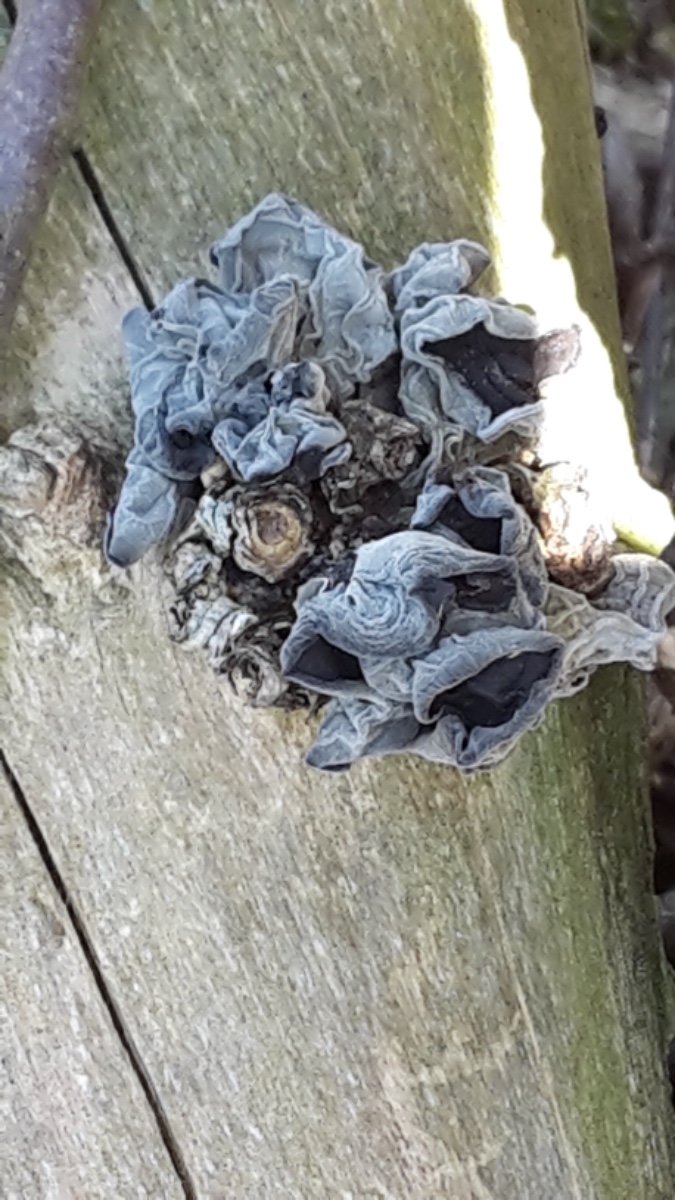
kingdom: Fungi
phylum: Basidiomycota
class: Agaricomycetes
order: Auriculariales
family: Auriculariaceae
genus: Auricularia
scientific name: Auricularia auricula-judae
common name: almindelig judasøre
